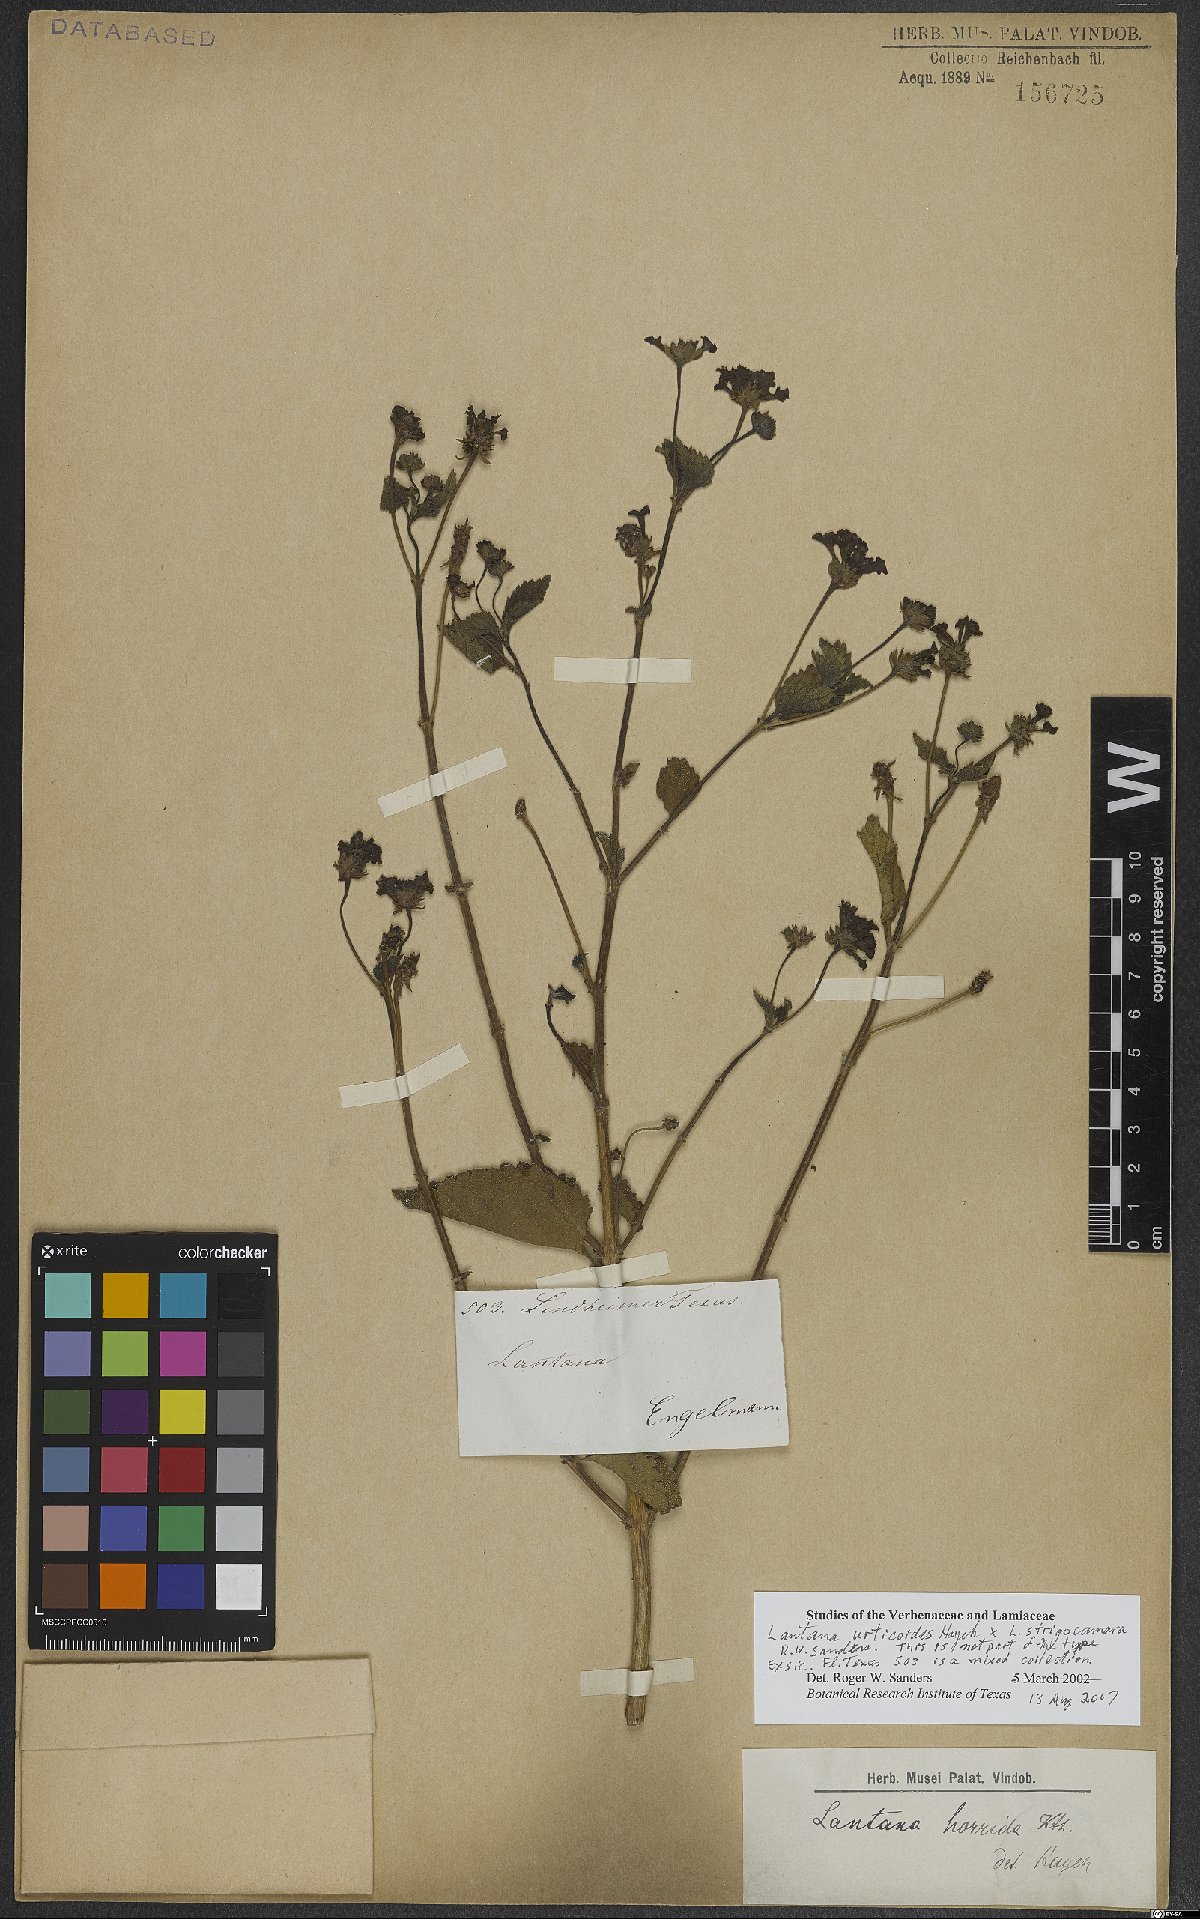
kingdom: Plantae
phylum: Tracheophyta
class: Magnoliopsida
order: Lamiales
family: Verbenaceae
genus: Lantana
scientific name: Lantana urticoides
